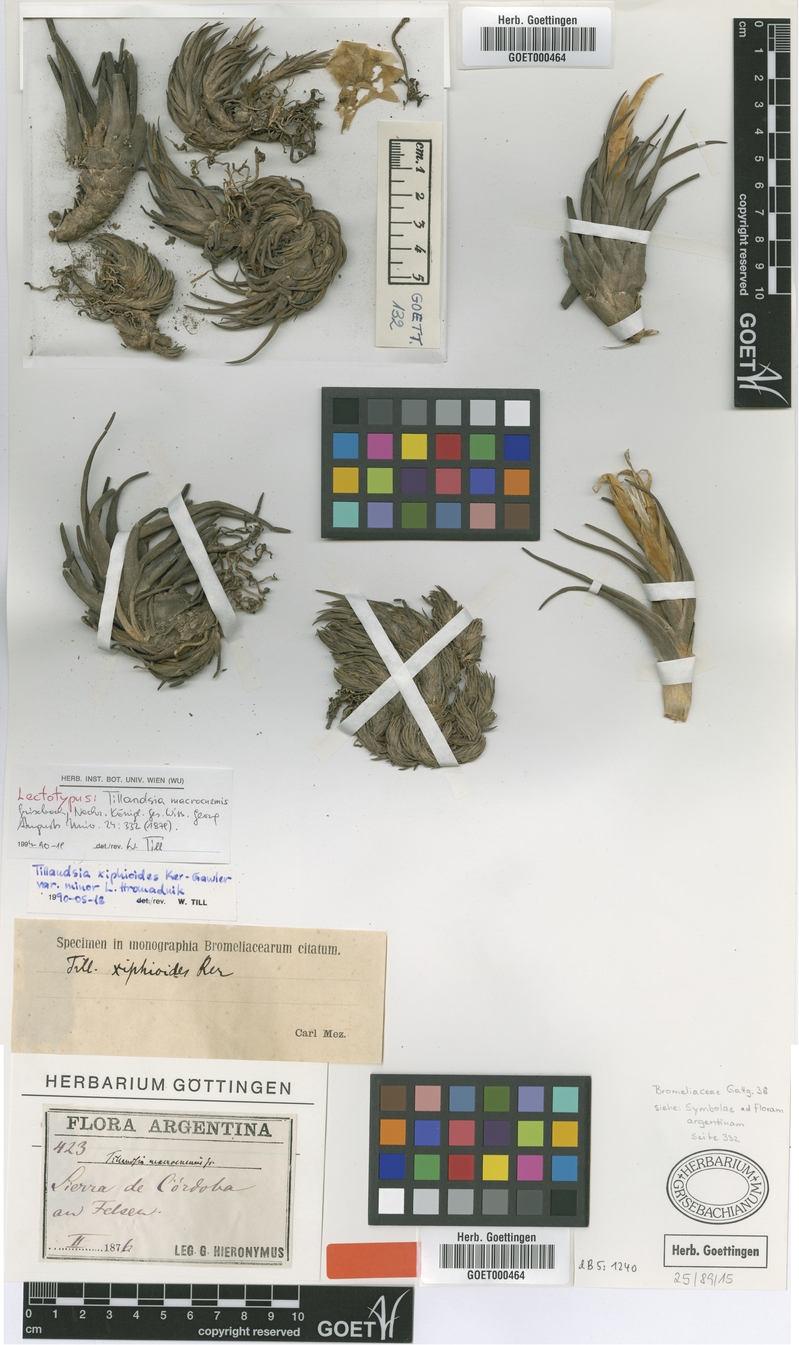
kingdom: Plantae
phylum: Tracheophyta
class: Liliopsida
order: Poales
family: Bromeliaceae
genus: Tillandsia
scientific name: Tillandsia xiphioides
